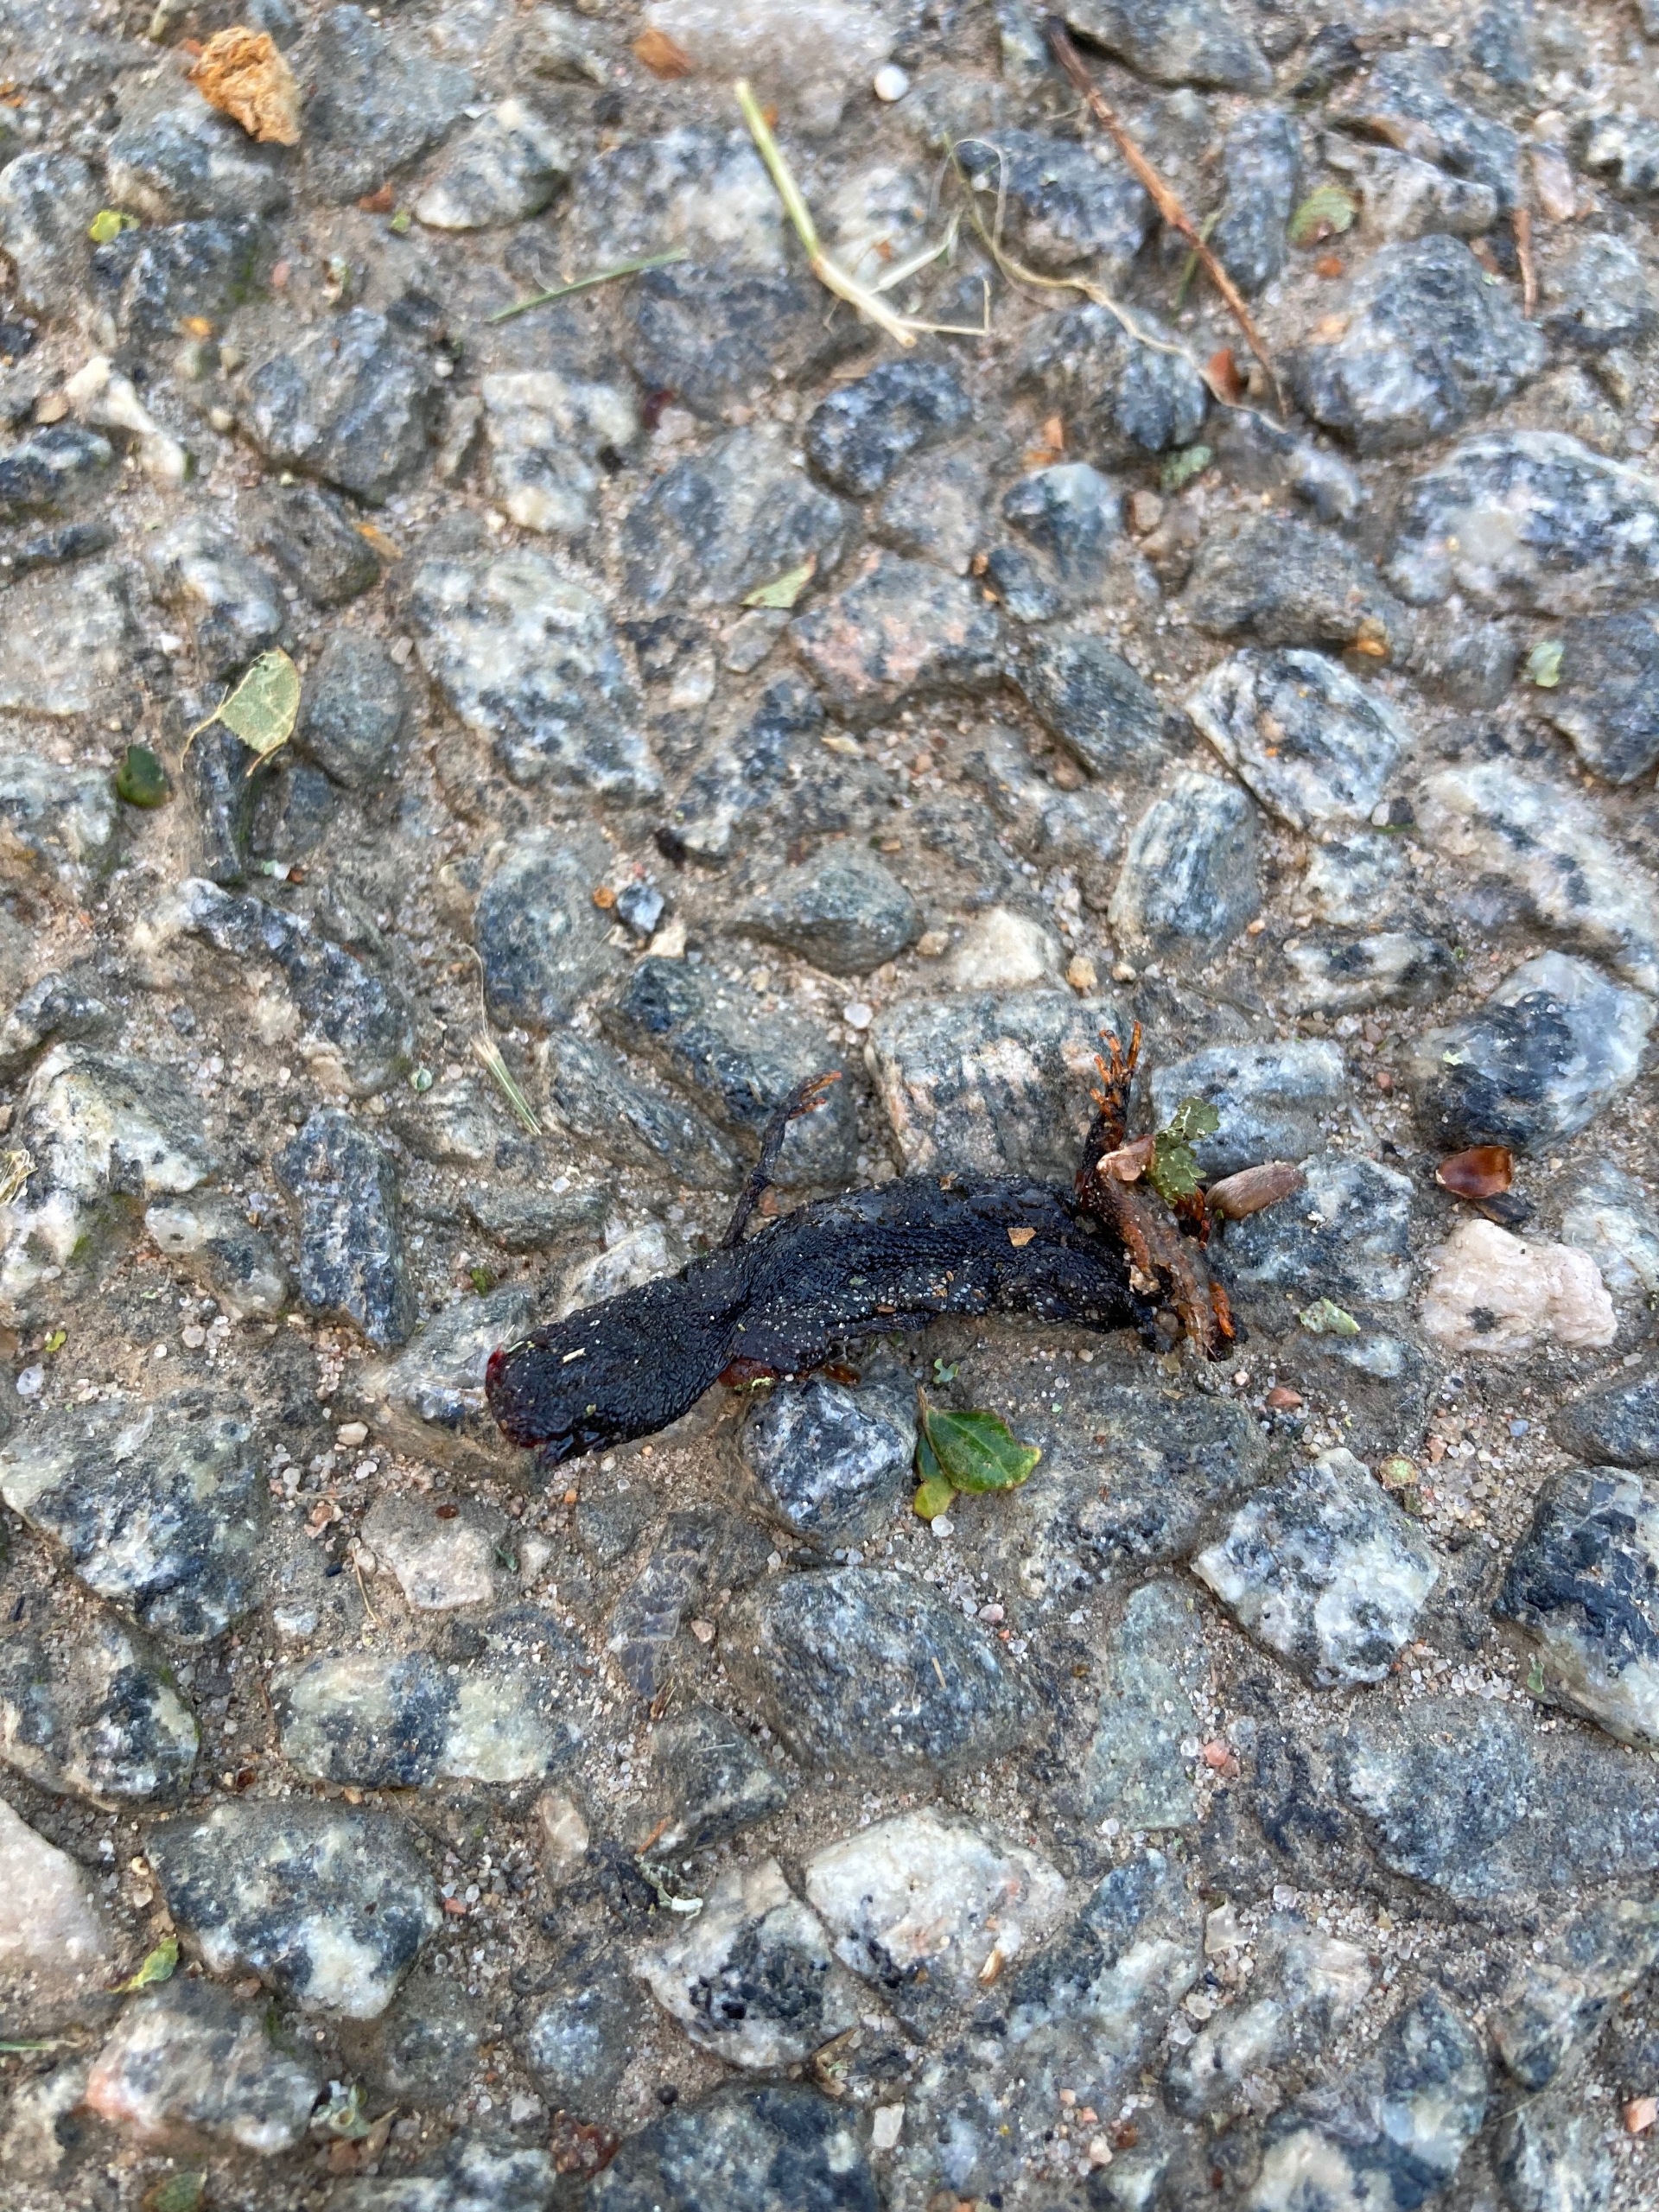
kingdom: Animalia
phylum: Chordata
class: Amphibia
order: Caudata
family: Salamandridae
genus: Triturus
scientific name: Triturus cristatus
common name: Stor vandsalamander
